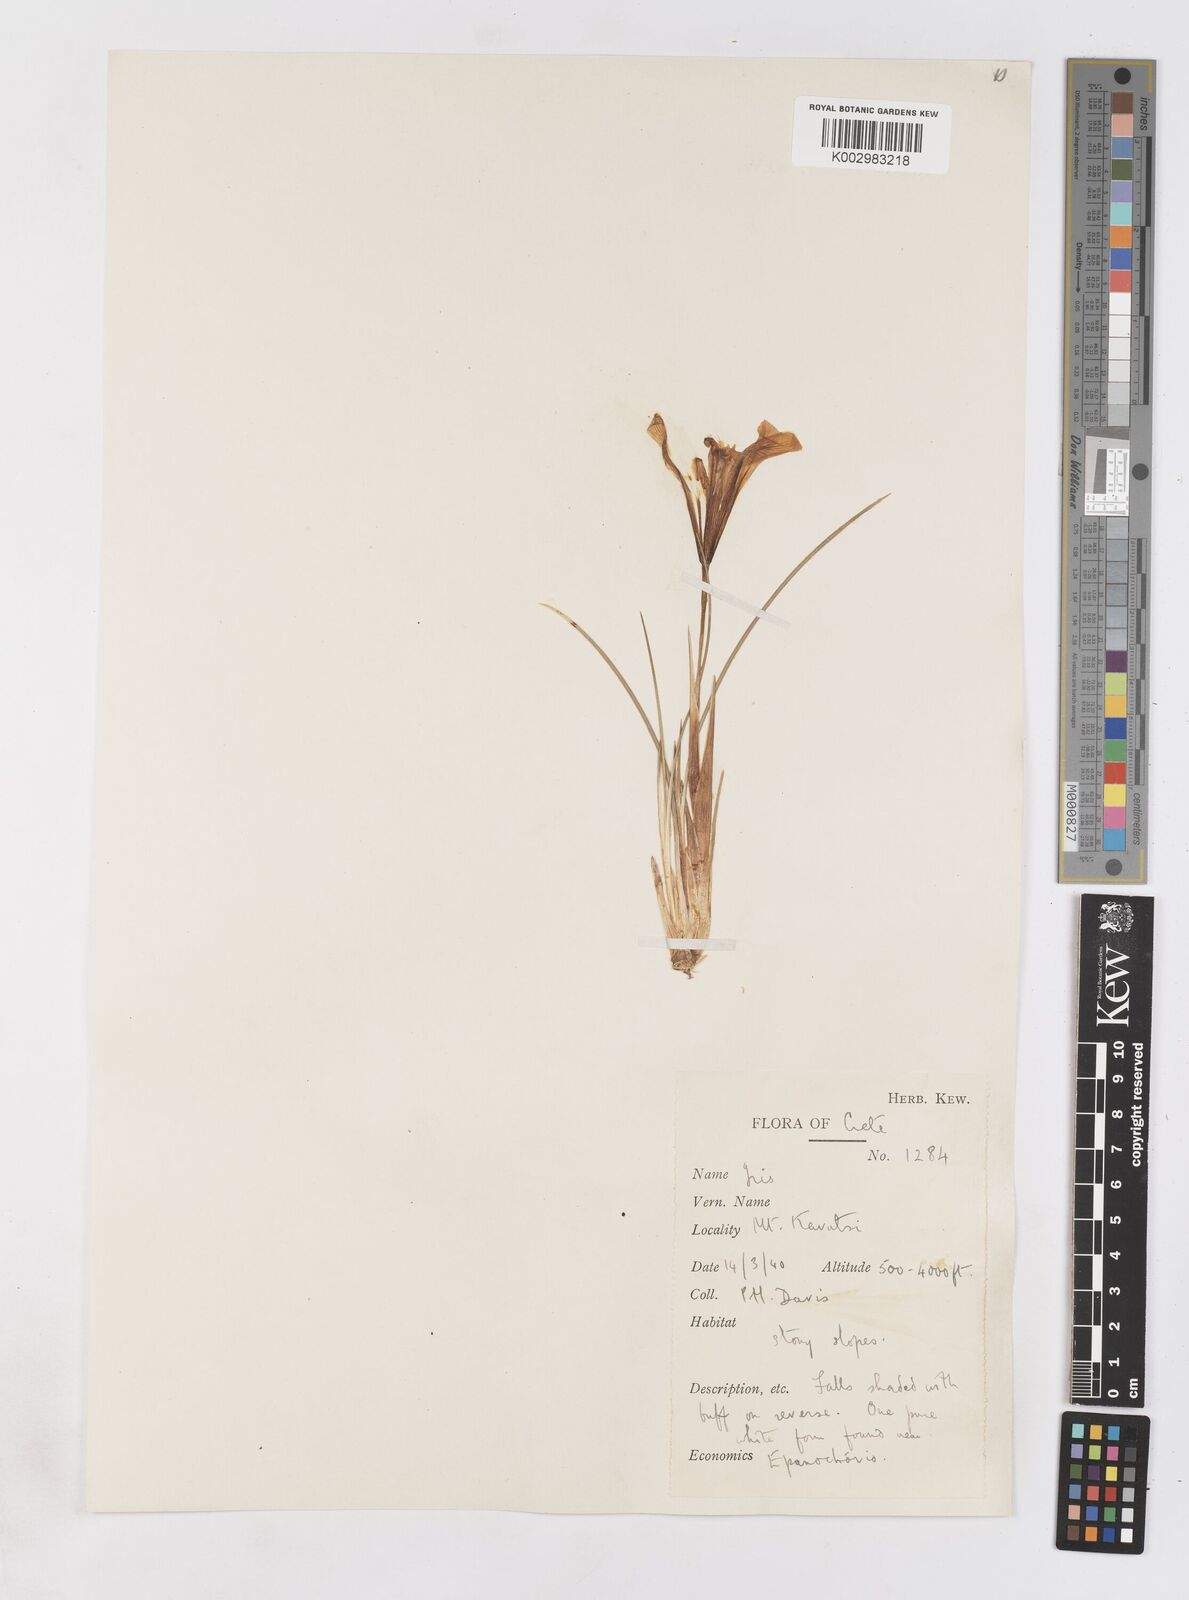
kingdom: Plantae
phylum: Tracheophyta
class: Liliopsida
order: Asparagales
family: Iridaceae
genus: Iris
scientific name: Iris unguicularis
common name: Algerian iris
